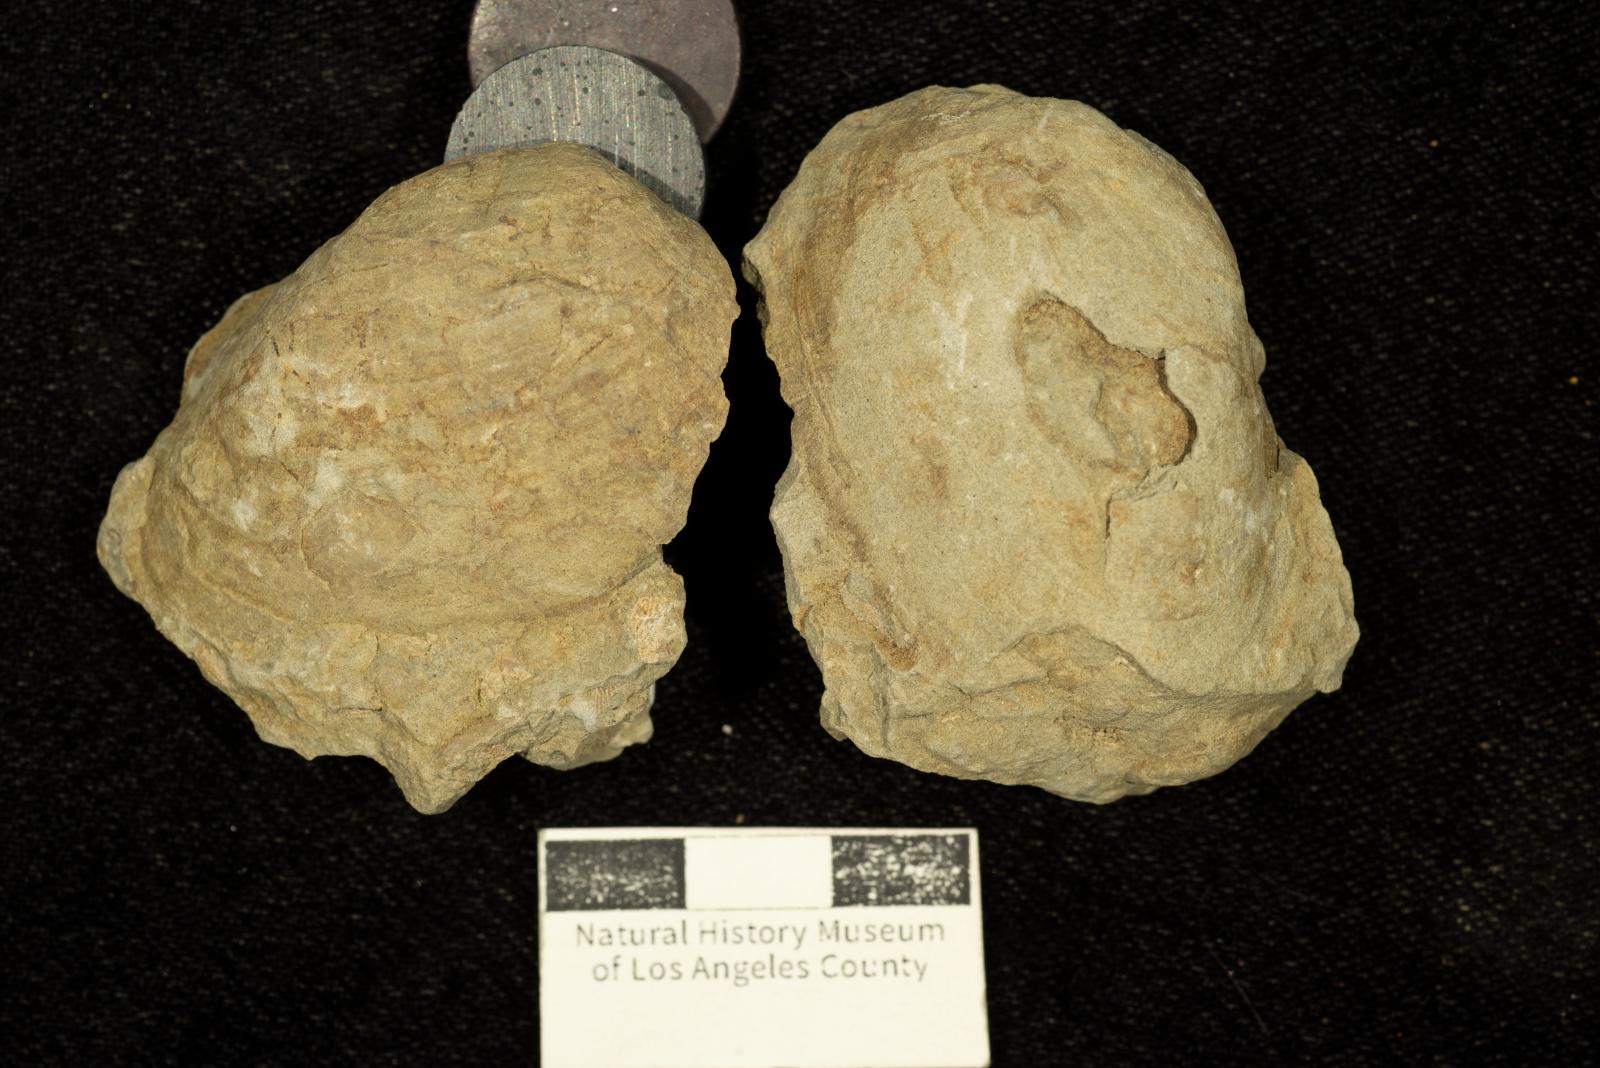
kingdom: Animalia
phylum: Mollusca
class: Bivalvia
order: Carditida
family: Crassatellidae
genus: Crassatella
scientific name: Crassatella saulae
